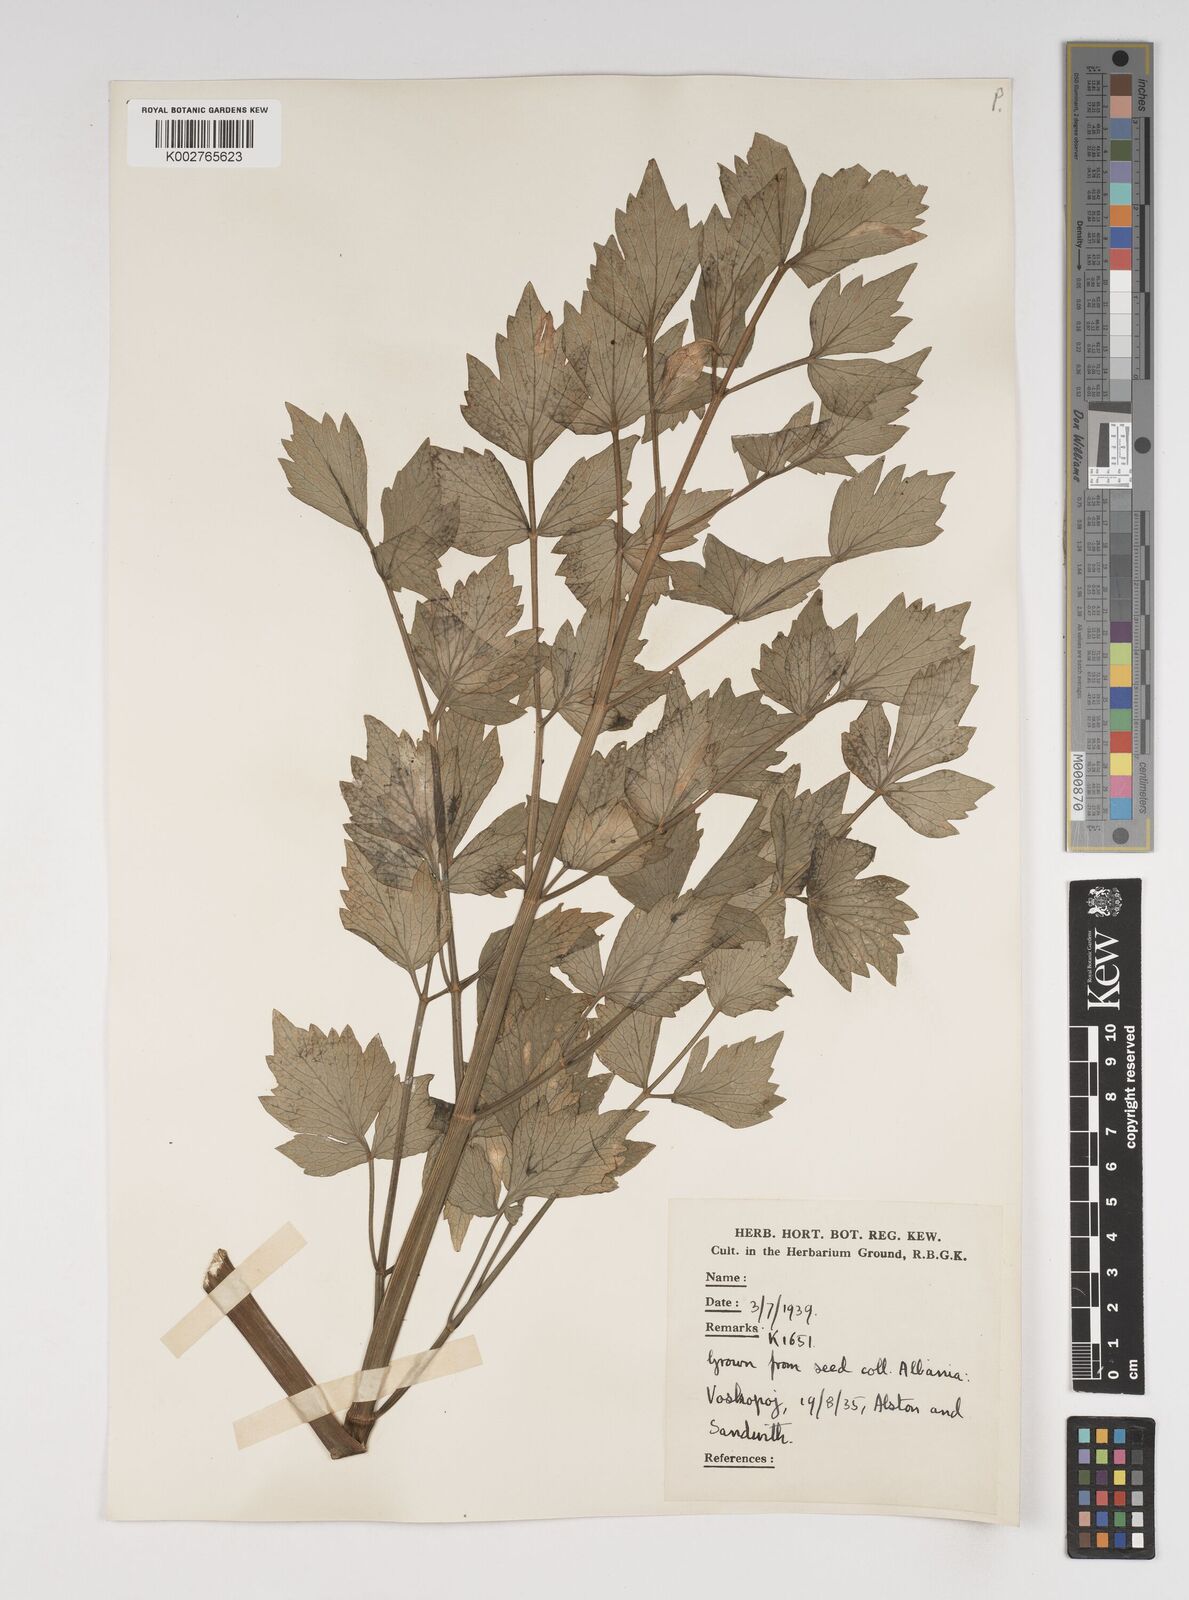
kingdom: Plantae
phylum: Tracheophyta
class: Magnoliopsida
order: Apiales
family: Apiaceae
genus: Levisticum
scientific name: Levisticum officinale
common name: Lovage
